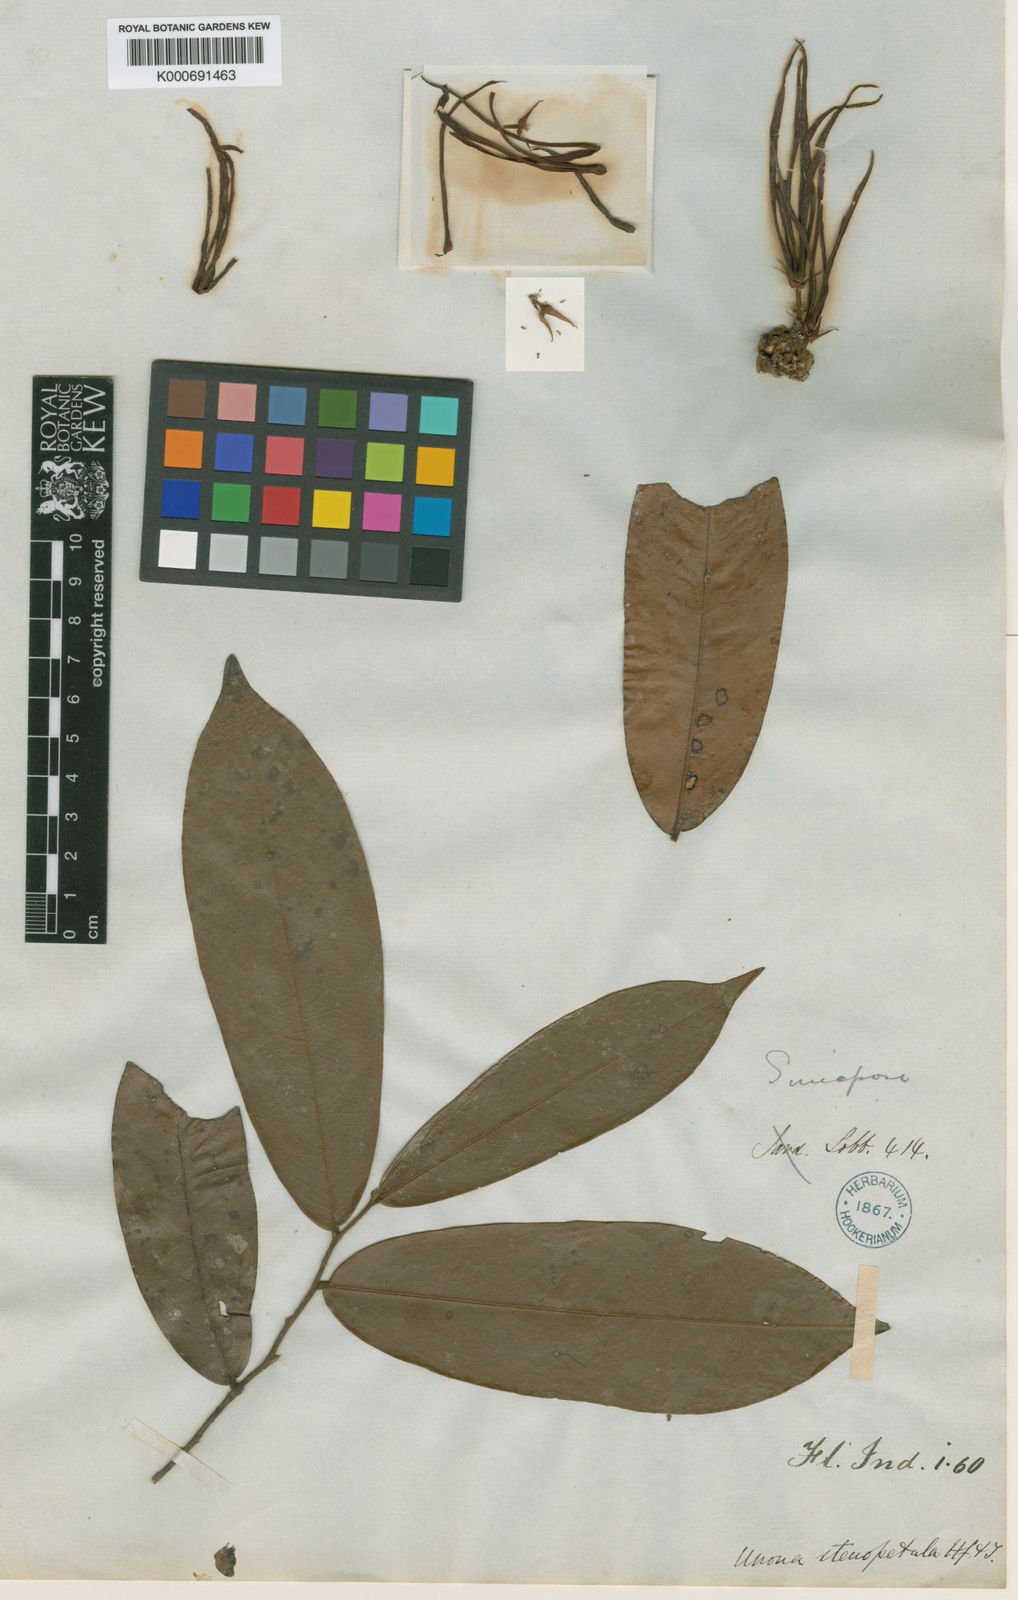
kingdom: Plantae
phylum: Tracheophyta
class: Magnoliopsida
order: Magnoliales
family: Annonaceae
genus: Polyalthia
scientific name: Polyalthia
